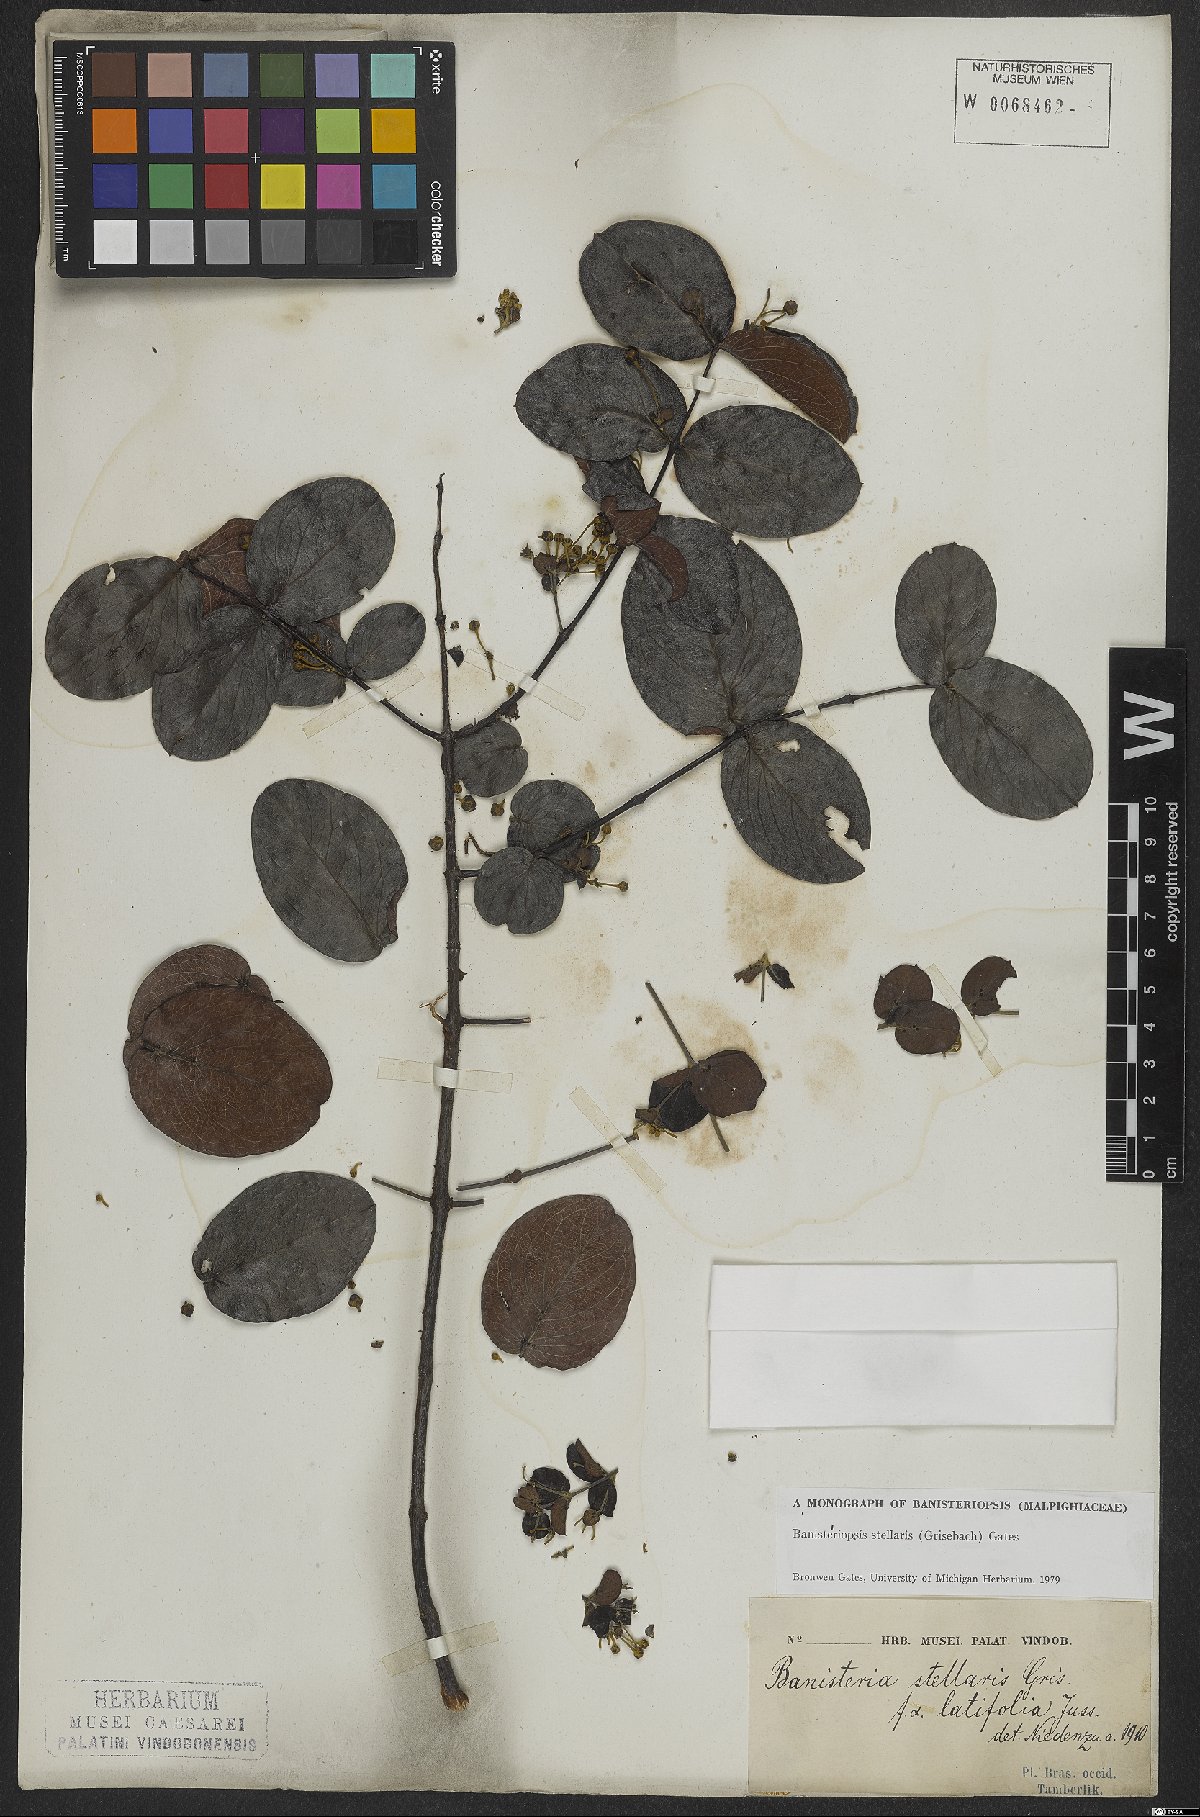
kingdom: Plantae
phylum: Tracheophyta
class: Magnoliopsida
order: Malpighiales
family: Malpighiaceae
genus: Banisteriopsis
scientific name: Banisteriopsis stellaris
